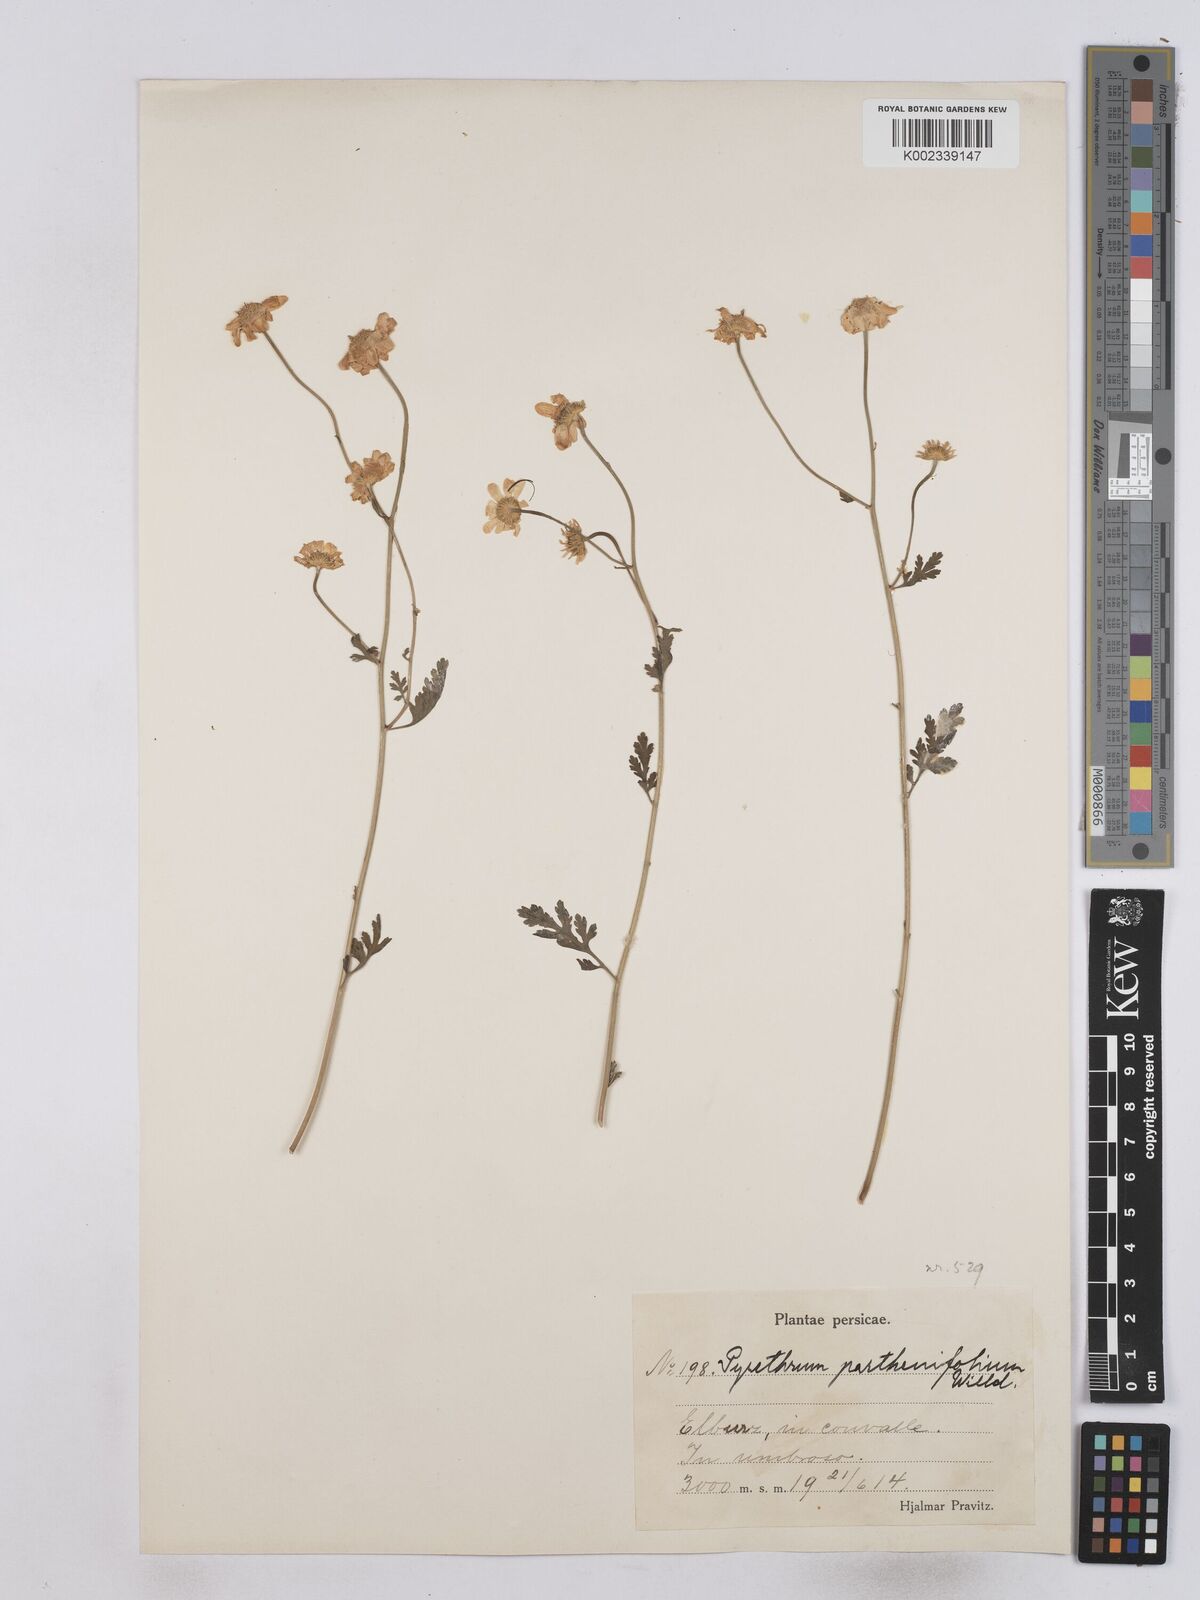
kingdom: Plantae
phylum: Tracheophyta
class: Magnoliopsida
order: Asterales
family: Asteraceae
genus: Tanacetum
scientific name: Tanacetum partheniifolium
